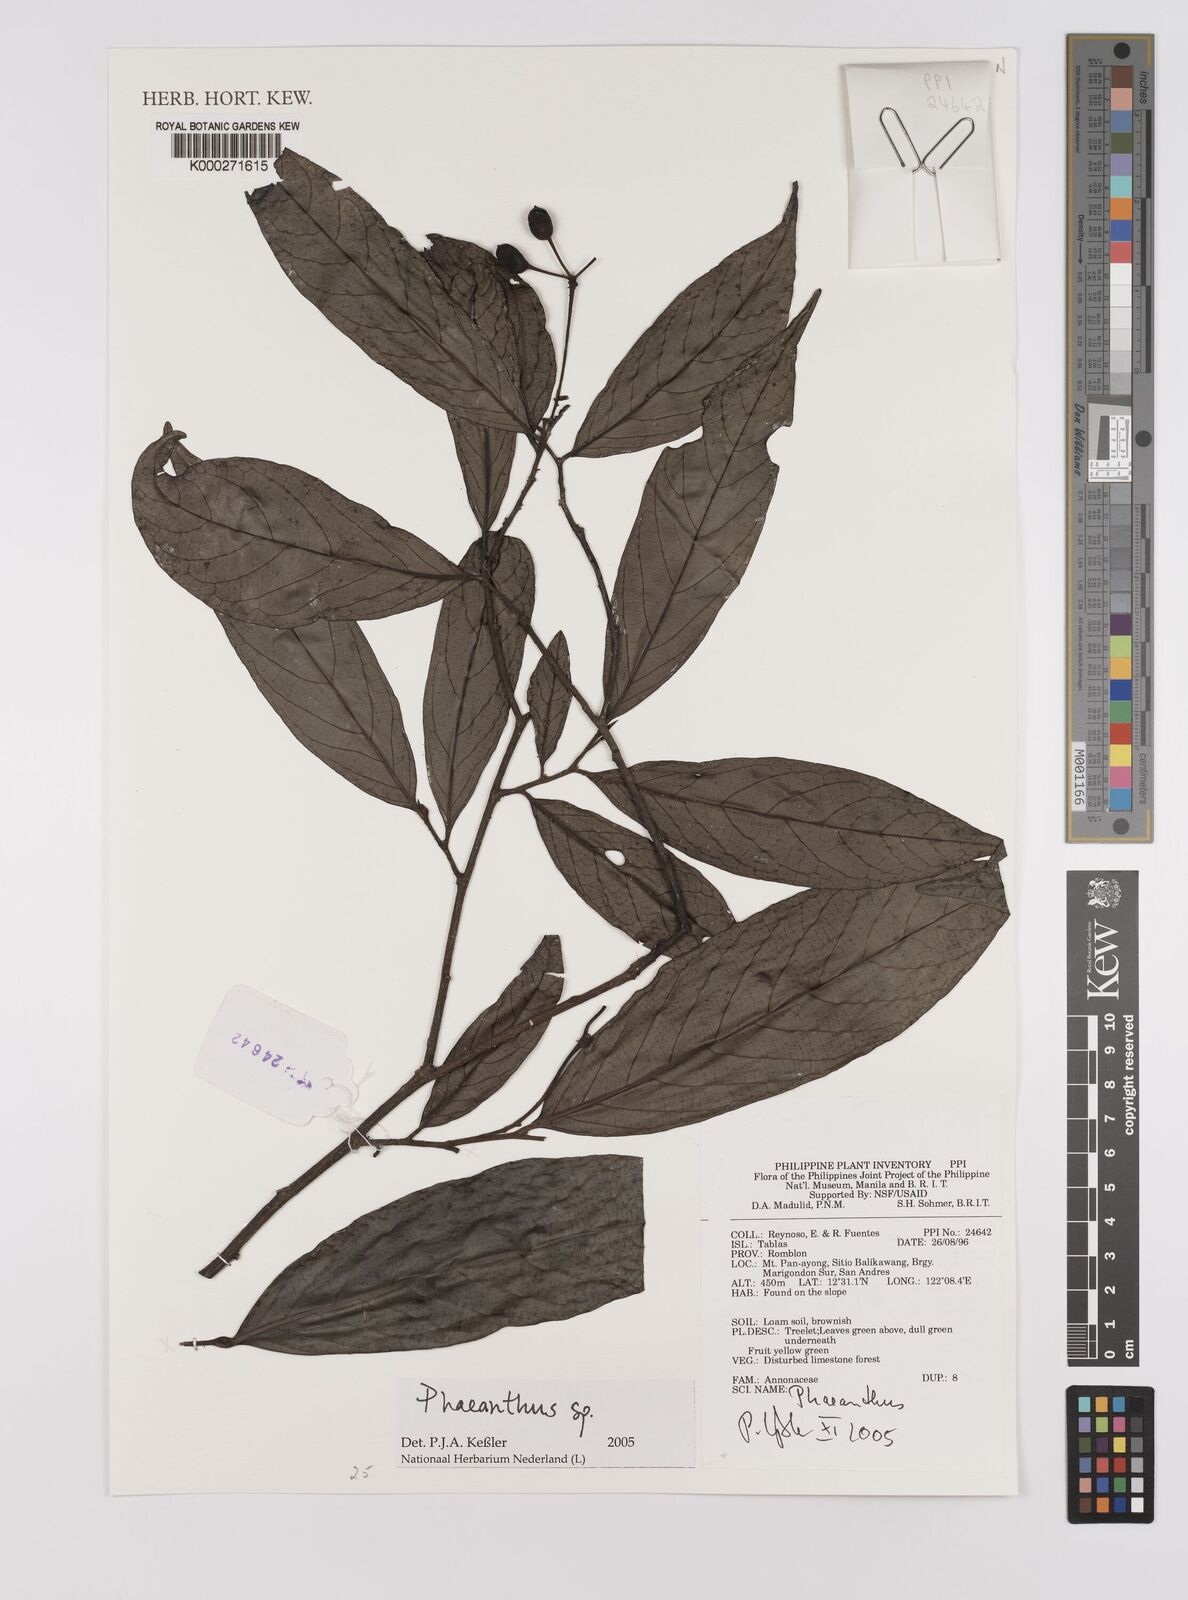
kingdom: Plantae
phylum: Tracheophyta
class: Magnoliopsida
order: Magnoliales
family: Annonaceae
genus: Phaeanthus
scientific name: Phaeanthus
